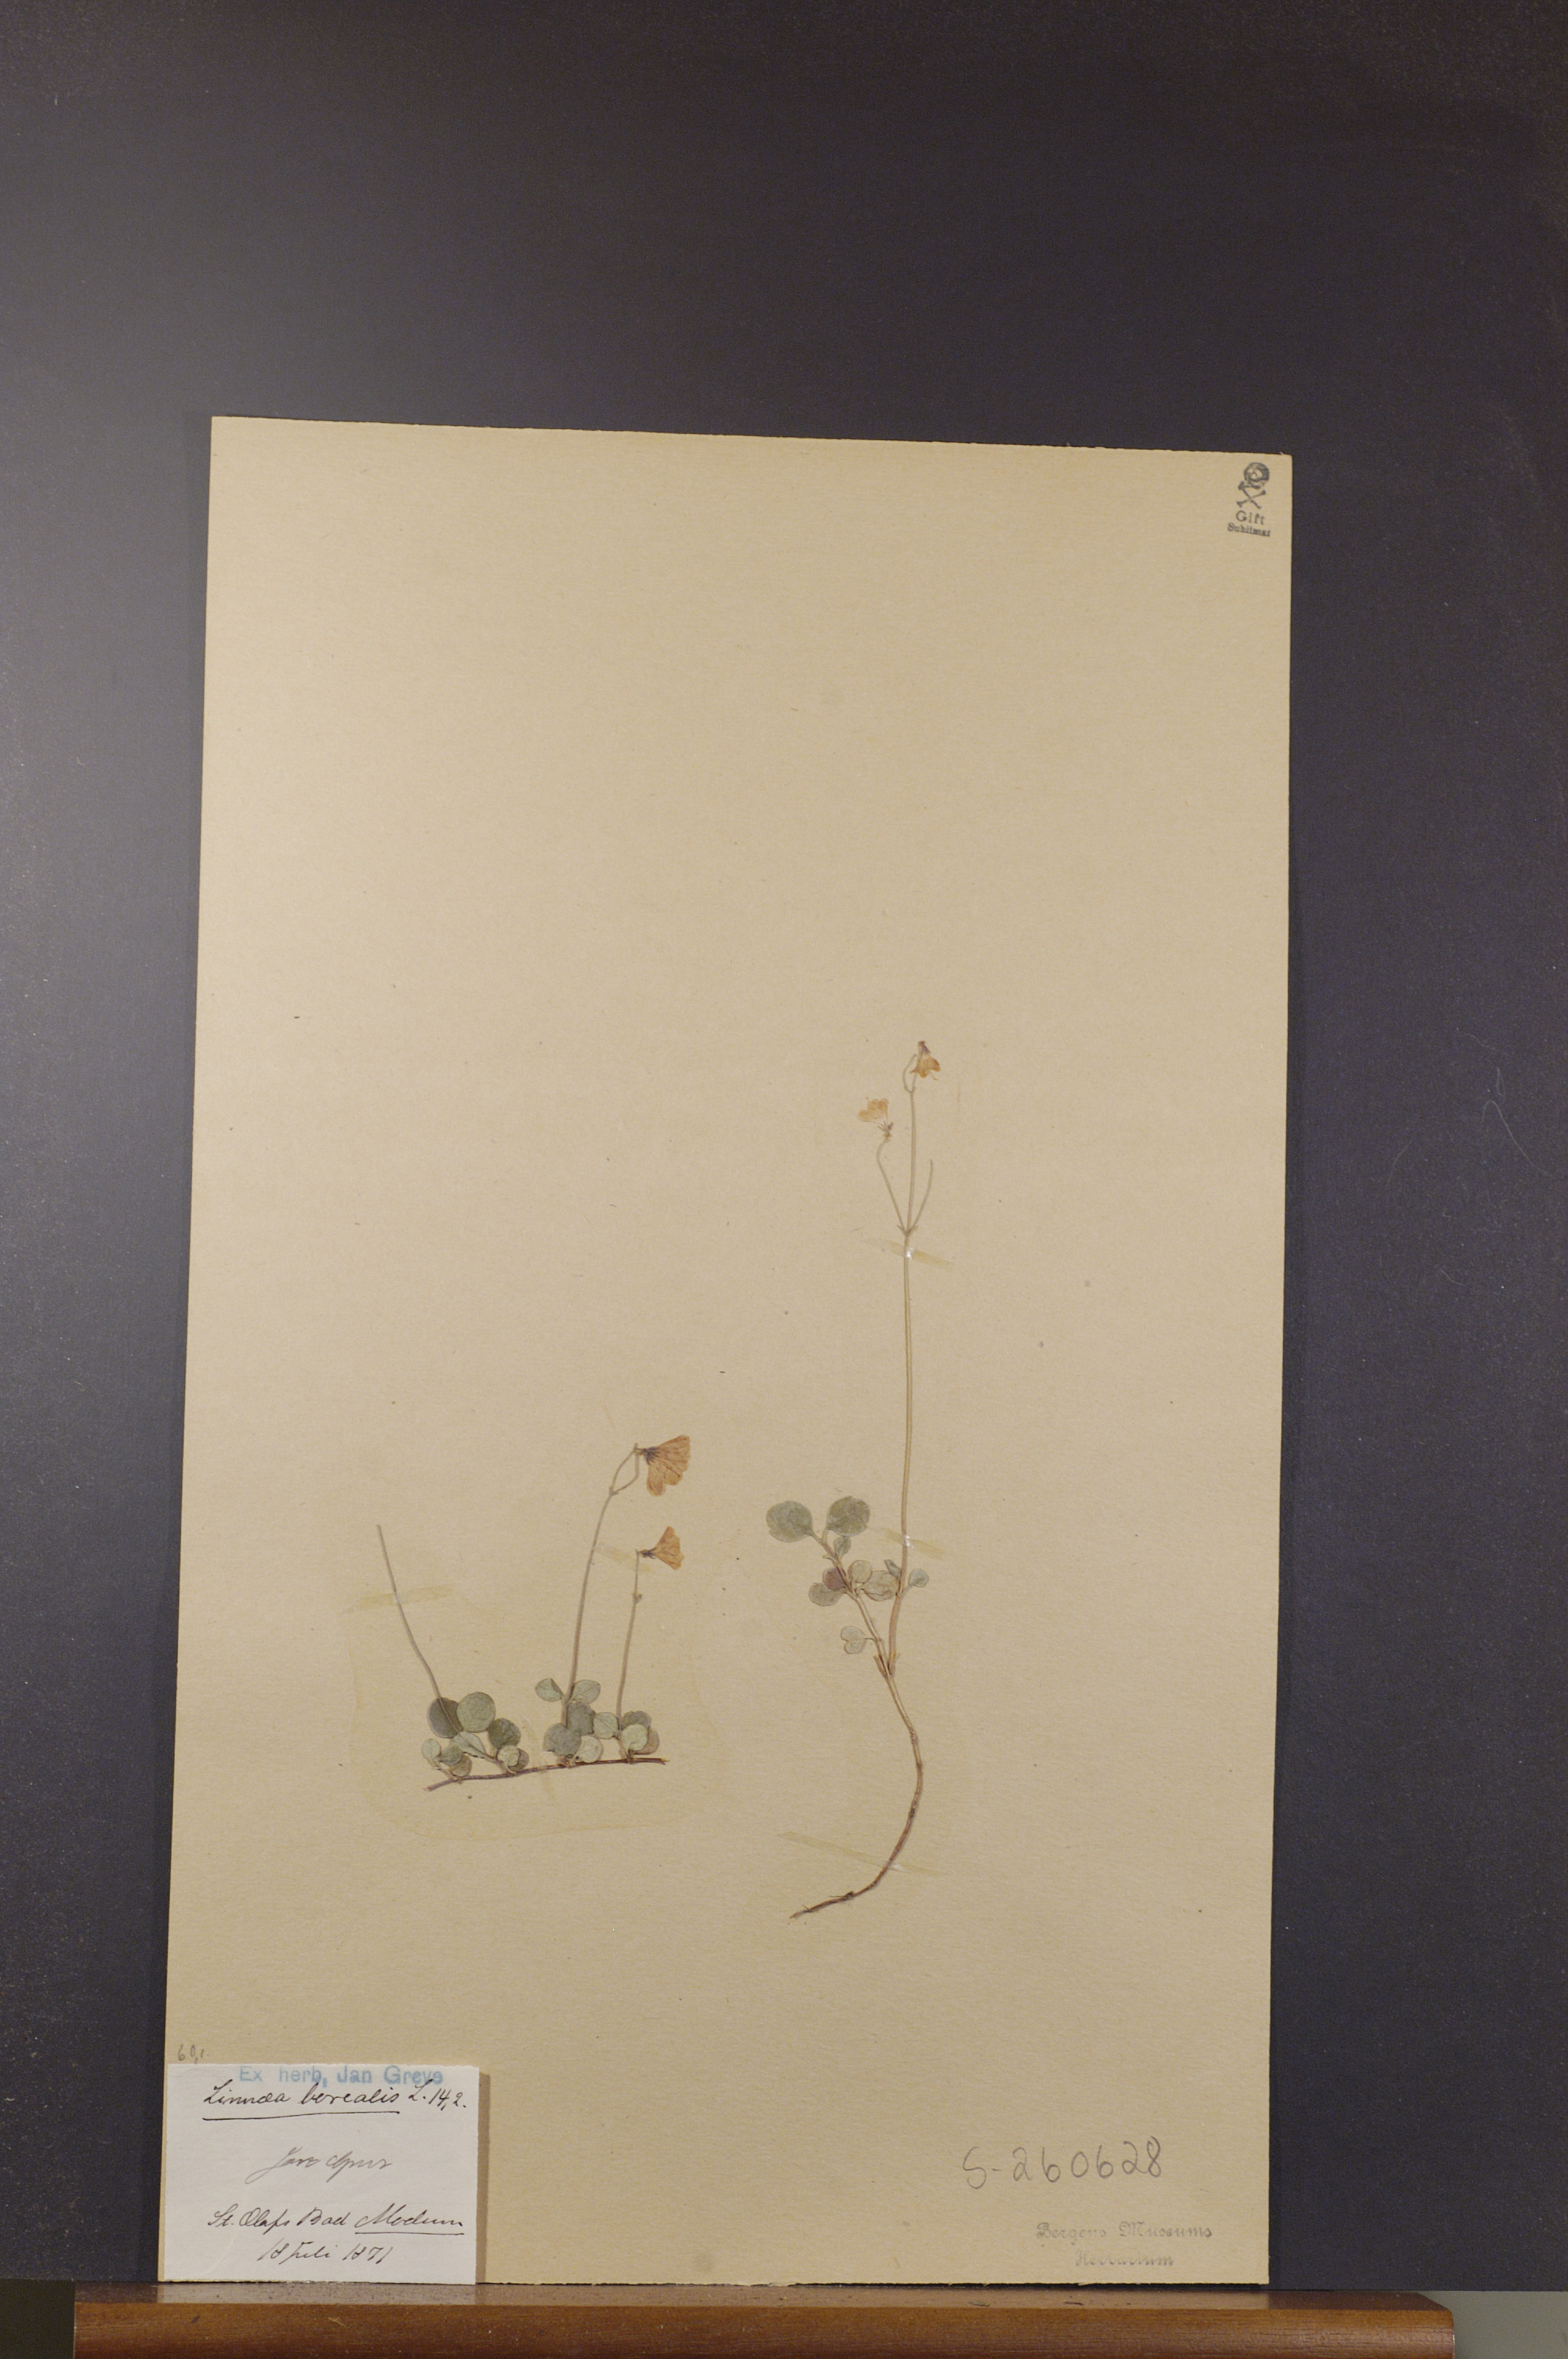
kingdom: Plantae
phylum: Tracheophyta
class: Magnoliopsida
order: Dipsacales
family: Caprifoliaceae
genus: Linnaea
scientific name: Linnaea borealis
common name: Twinflower
